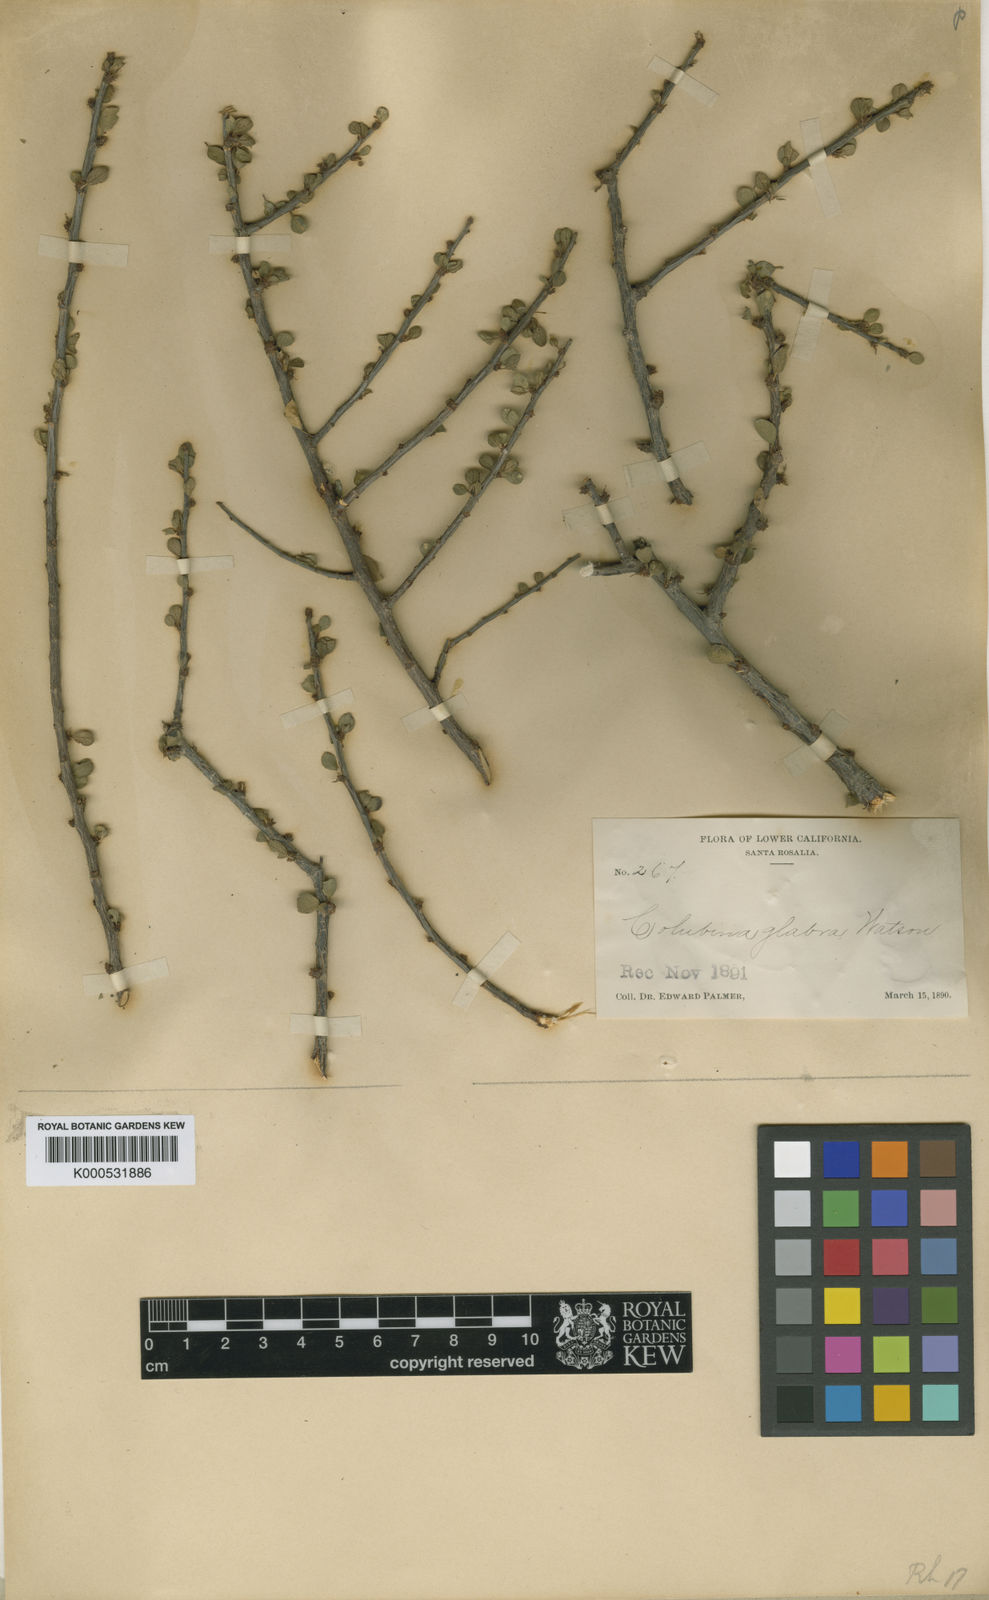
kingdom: Plantae
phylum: Tracheophyta
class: Magnoliopsida
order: Rosales
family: Rhamnaceae
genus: Colubrina
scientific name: Colubrina viridis
